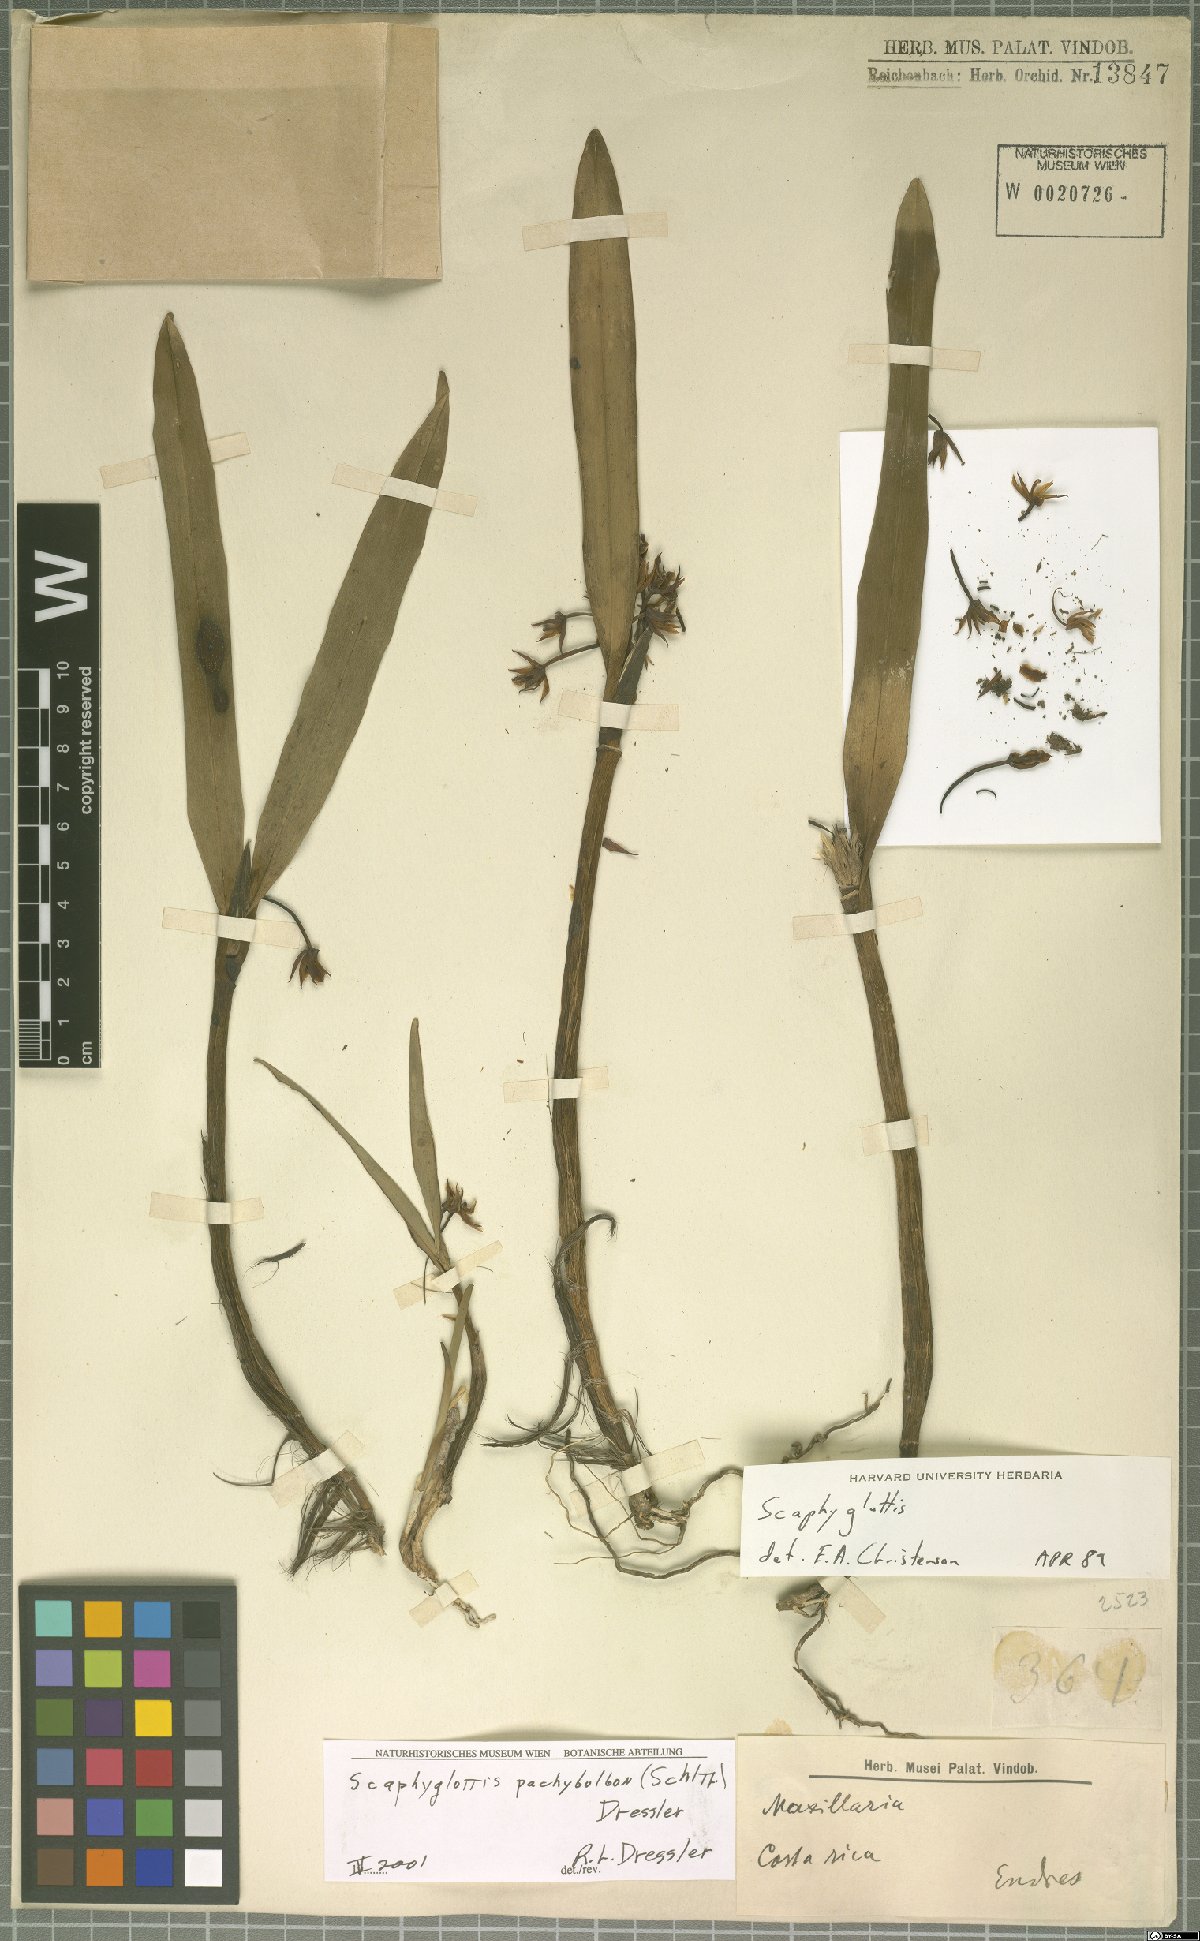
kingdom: Plantae
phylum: Tracheophyta
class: Liliopsida
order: Asparagales
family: Orchidaceae
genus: Scaphyglottis
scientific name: Scaphyglottis pachybulbon
